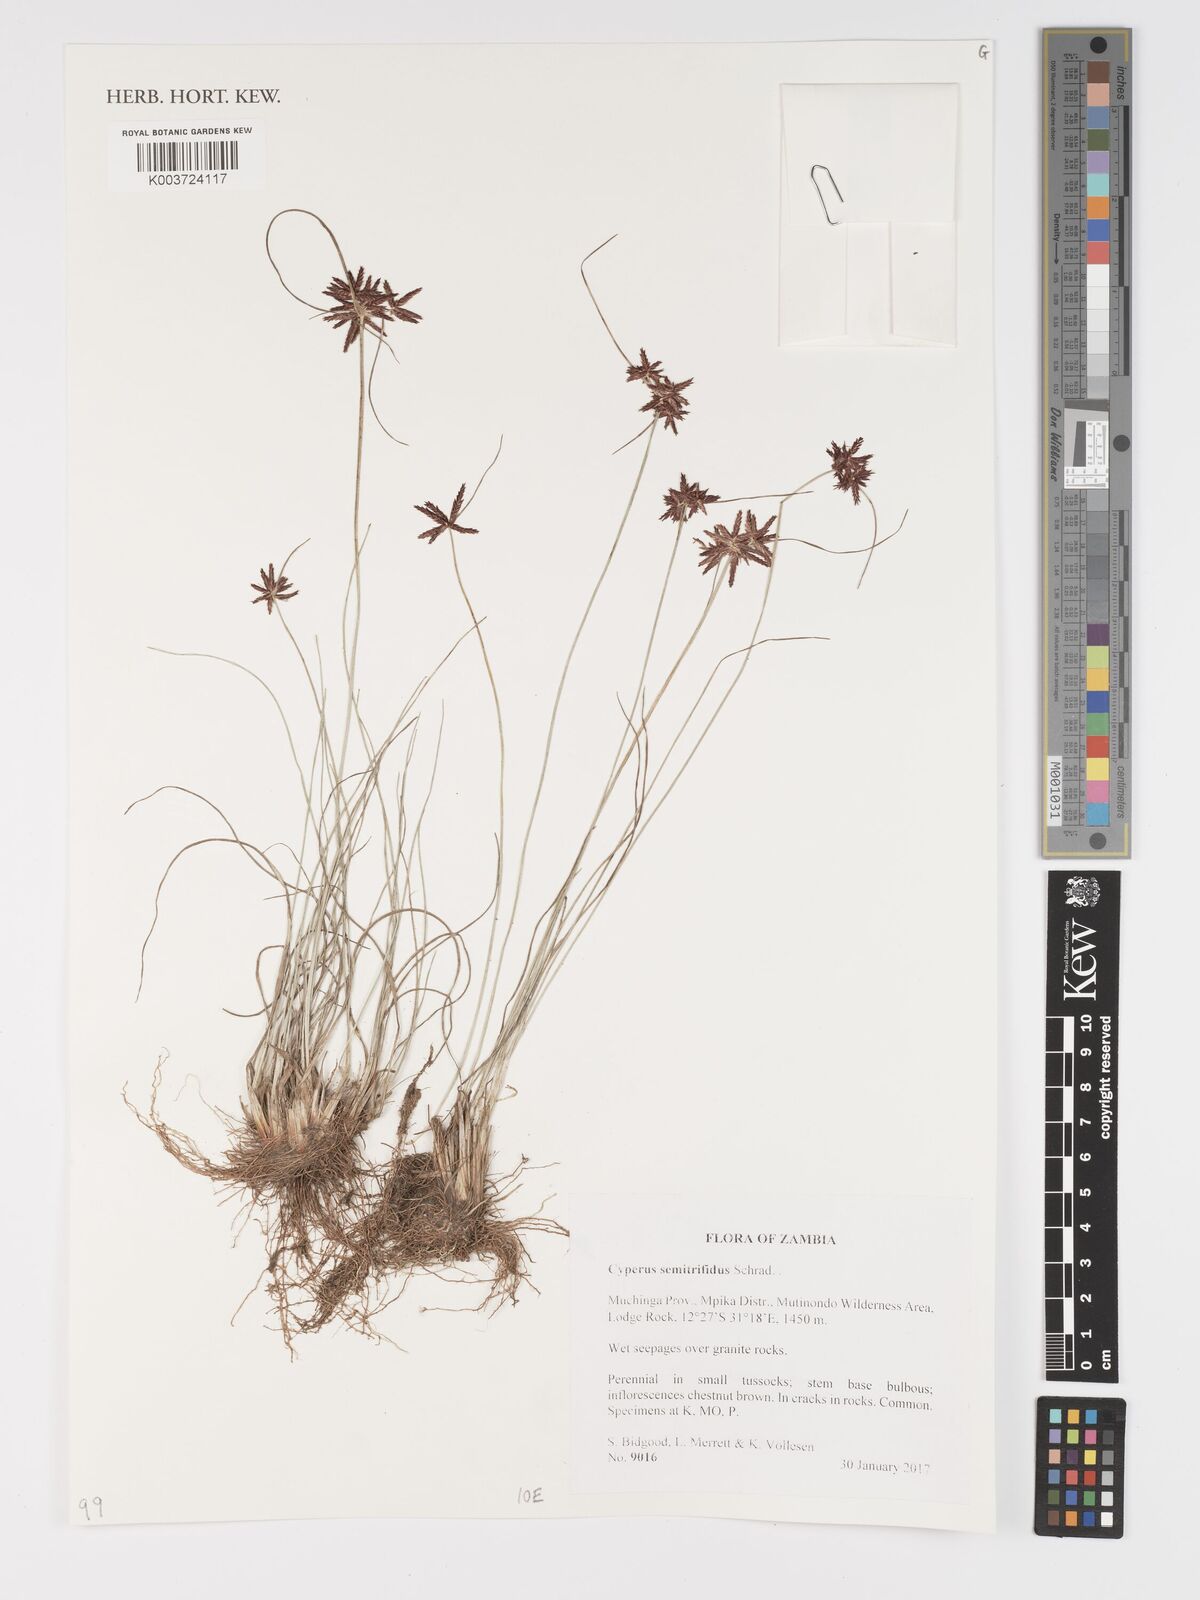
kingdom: Plantae
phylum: Tracheophyta
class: Liliopsida
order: Poales
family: Cyperaceae
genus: Cyperus
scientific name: Cyperus semitrifidus
